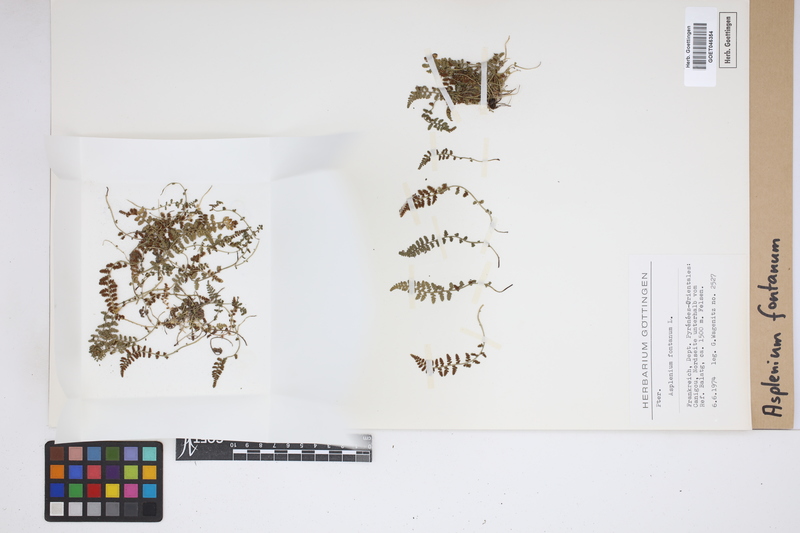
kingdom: Plantae
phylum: Tracheophyta
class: Polypodiopsida
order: Polypodiales
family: Aspleniaceae
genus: Asplenium
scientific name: Asplenium fontanum
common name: Fountain spleenwort
